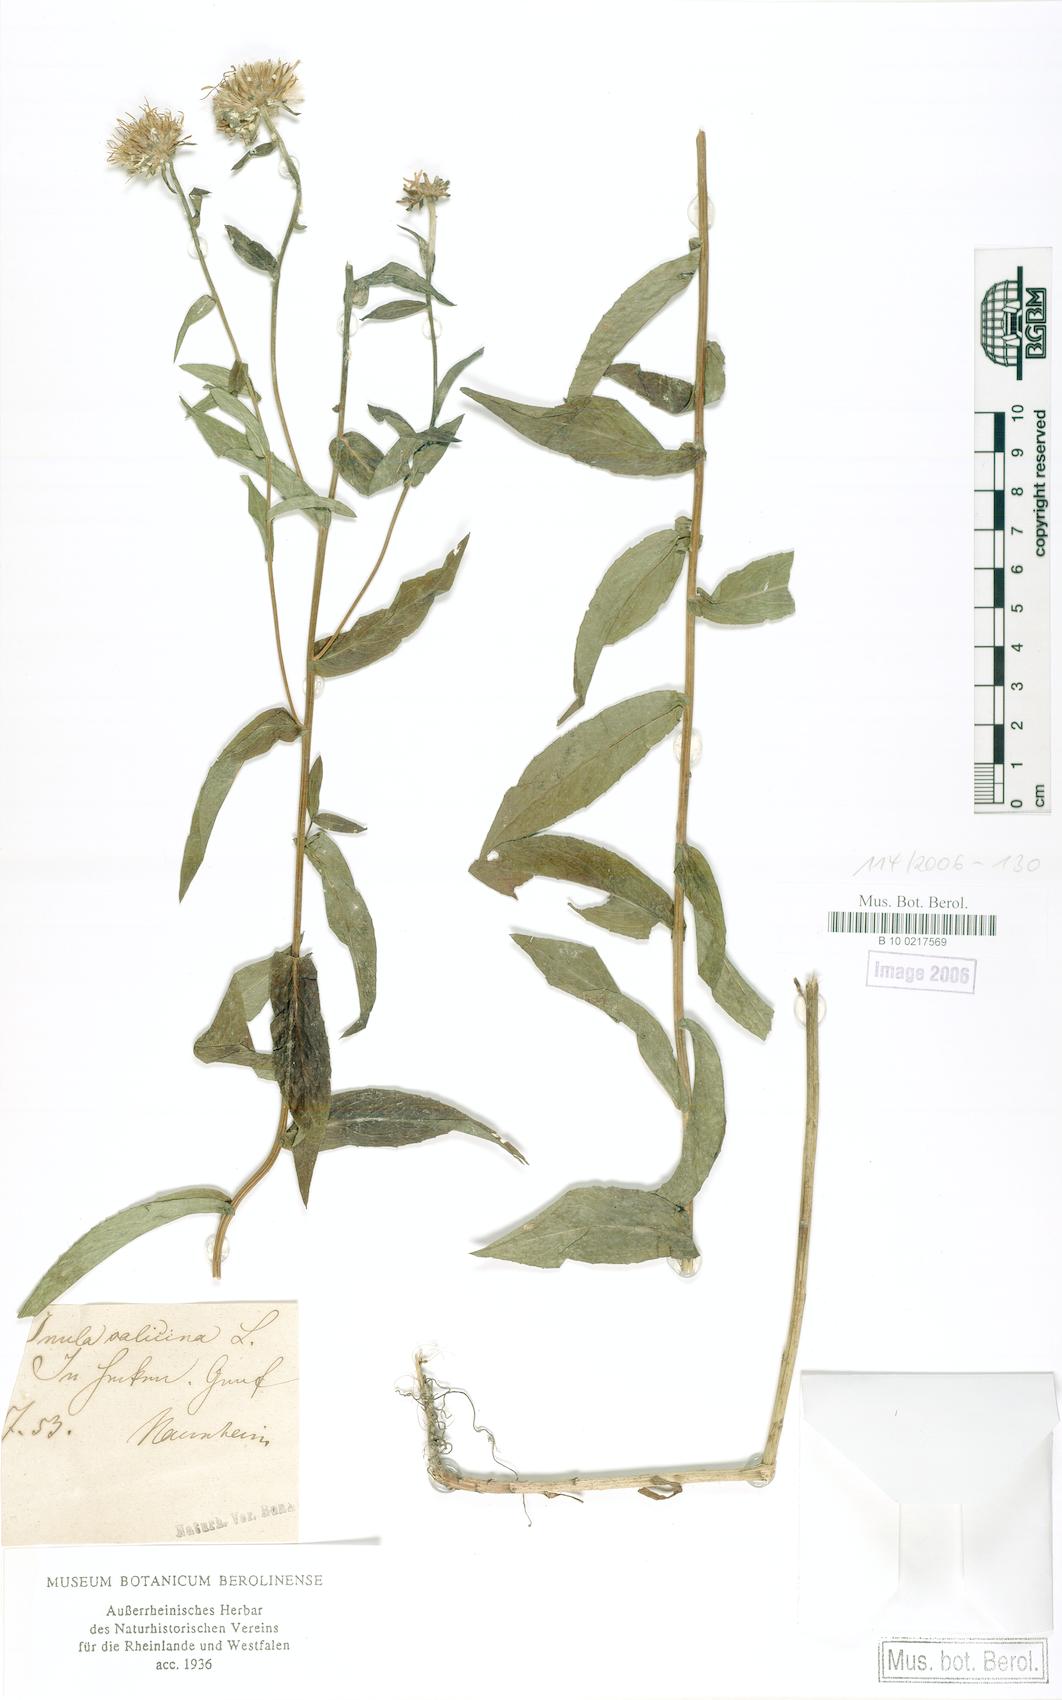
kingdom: Plantae
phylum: Tracheophyta
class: Magnoliopsida
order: Asterales
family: Asteraceae
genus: Pentanema
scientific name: Pentanema salicinum
